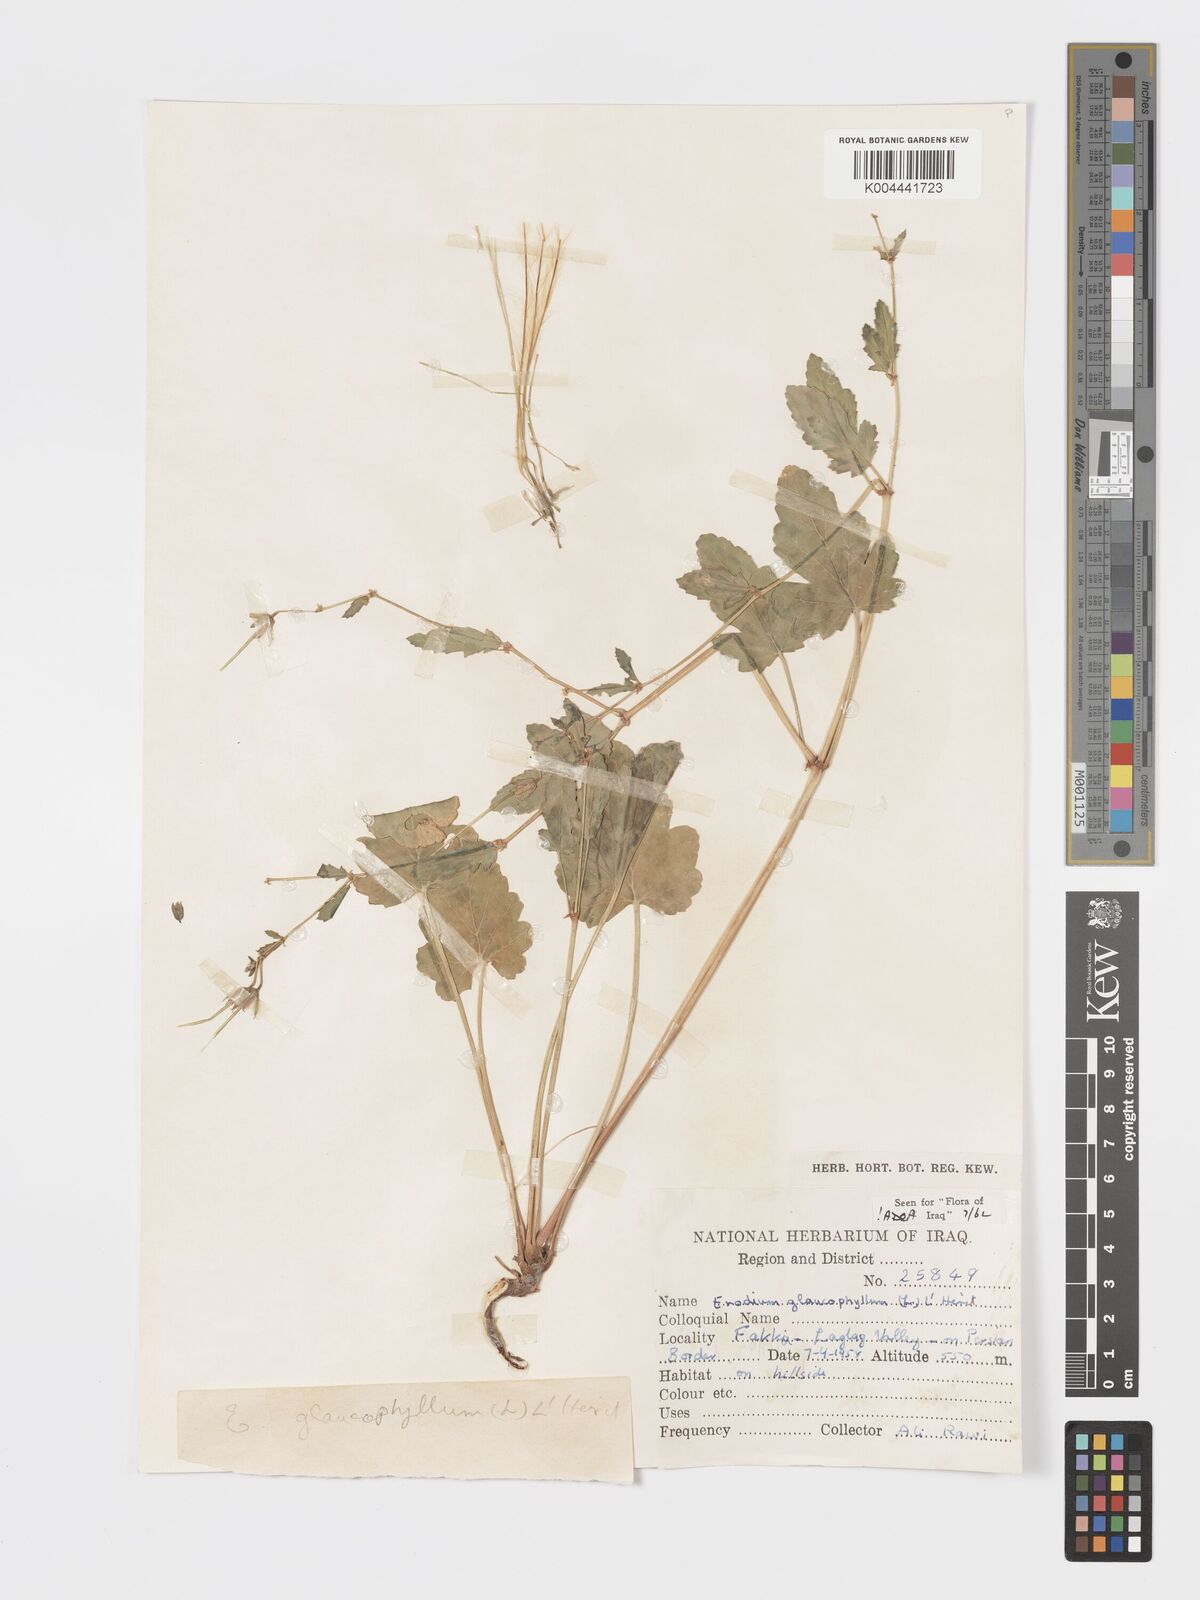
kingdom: Plantae
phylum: Tracheophyta
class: Magnoliopsida
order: Geraniales
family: Geraniaceae
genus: Erodium
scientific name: Erodium glaucophyllum
